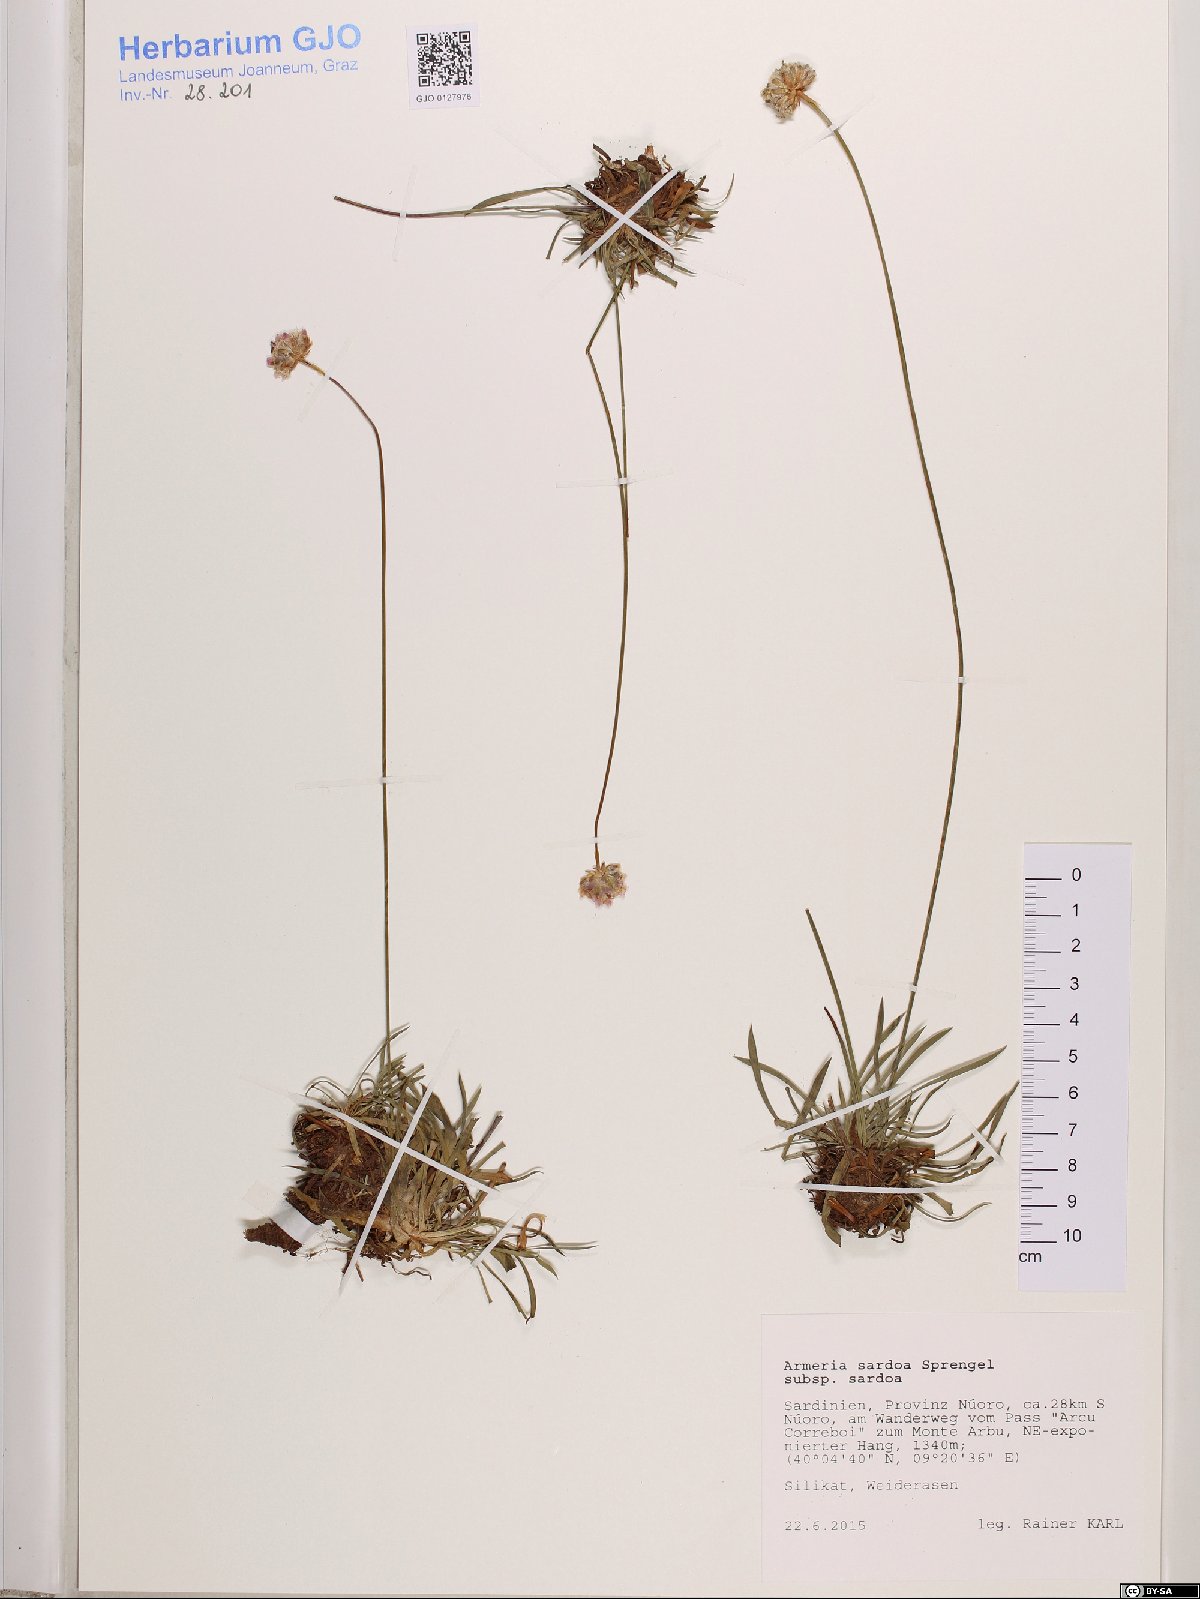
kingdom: Plantae
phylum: Tracheophyta
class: Magnoliopsida
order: Caryophyllales
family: Plumbaginaceae
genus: Armeria
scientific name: Armeria sardoa
